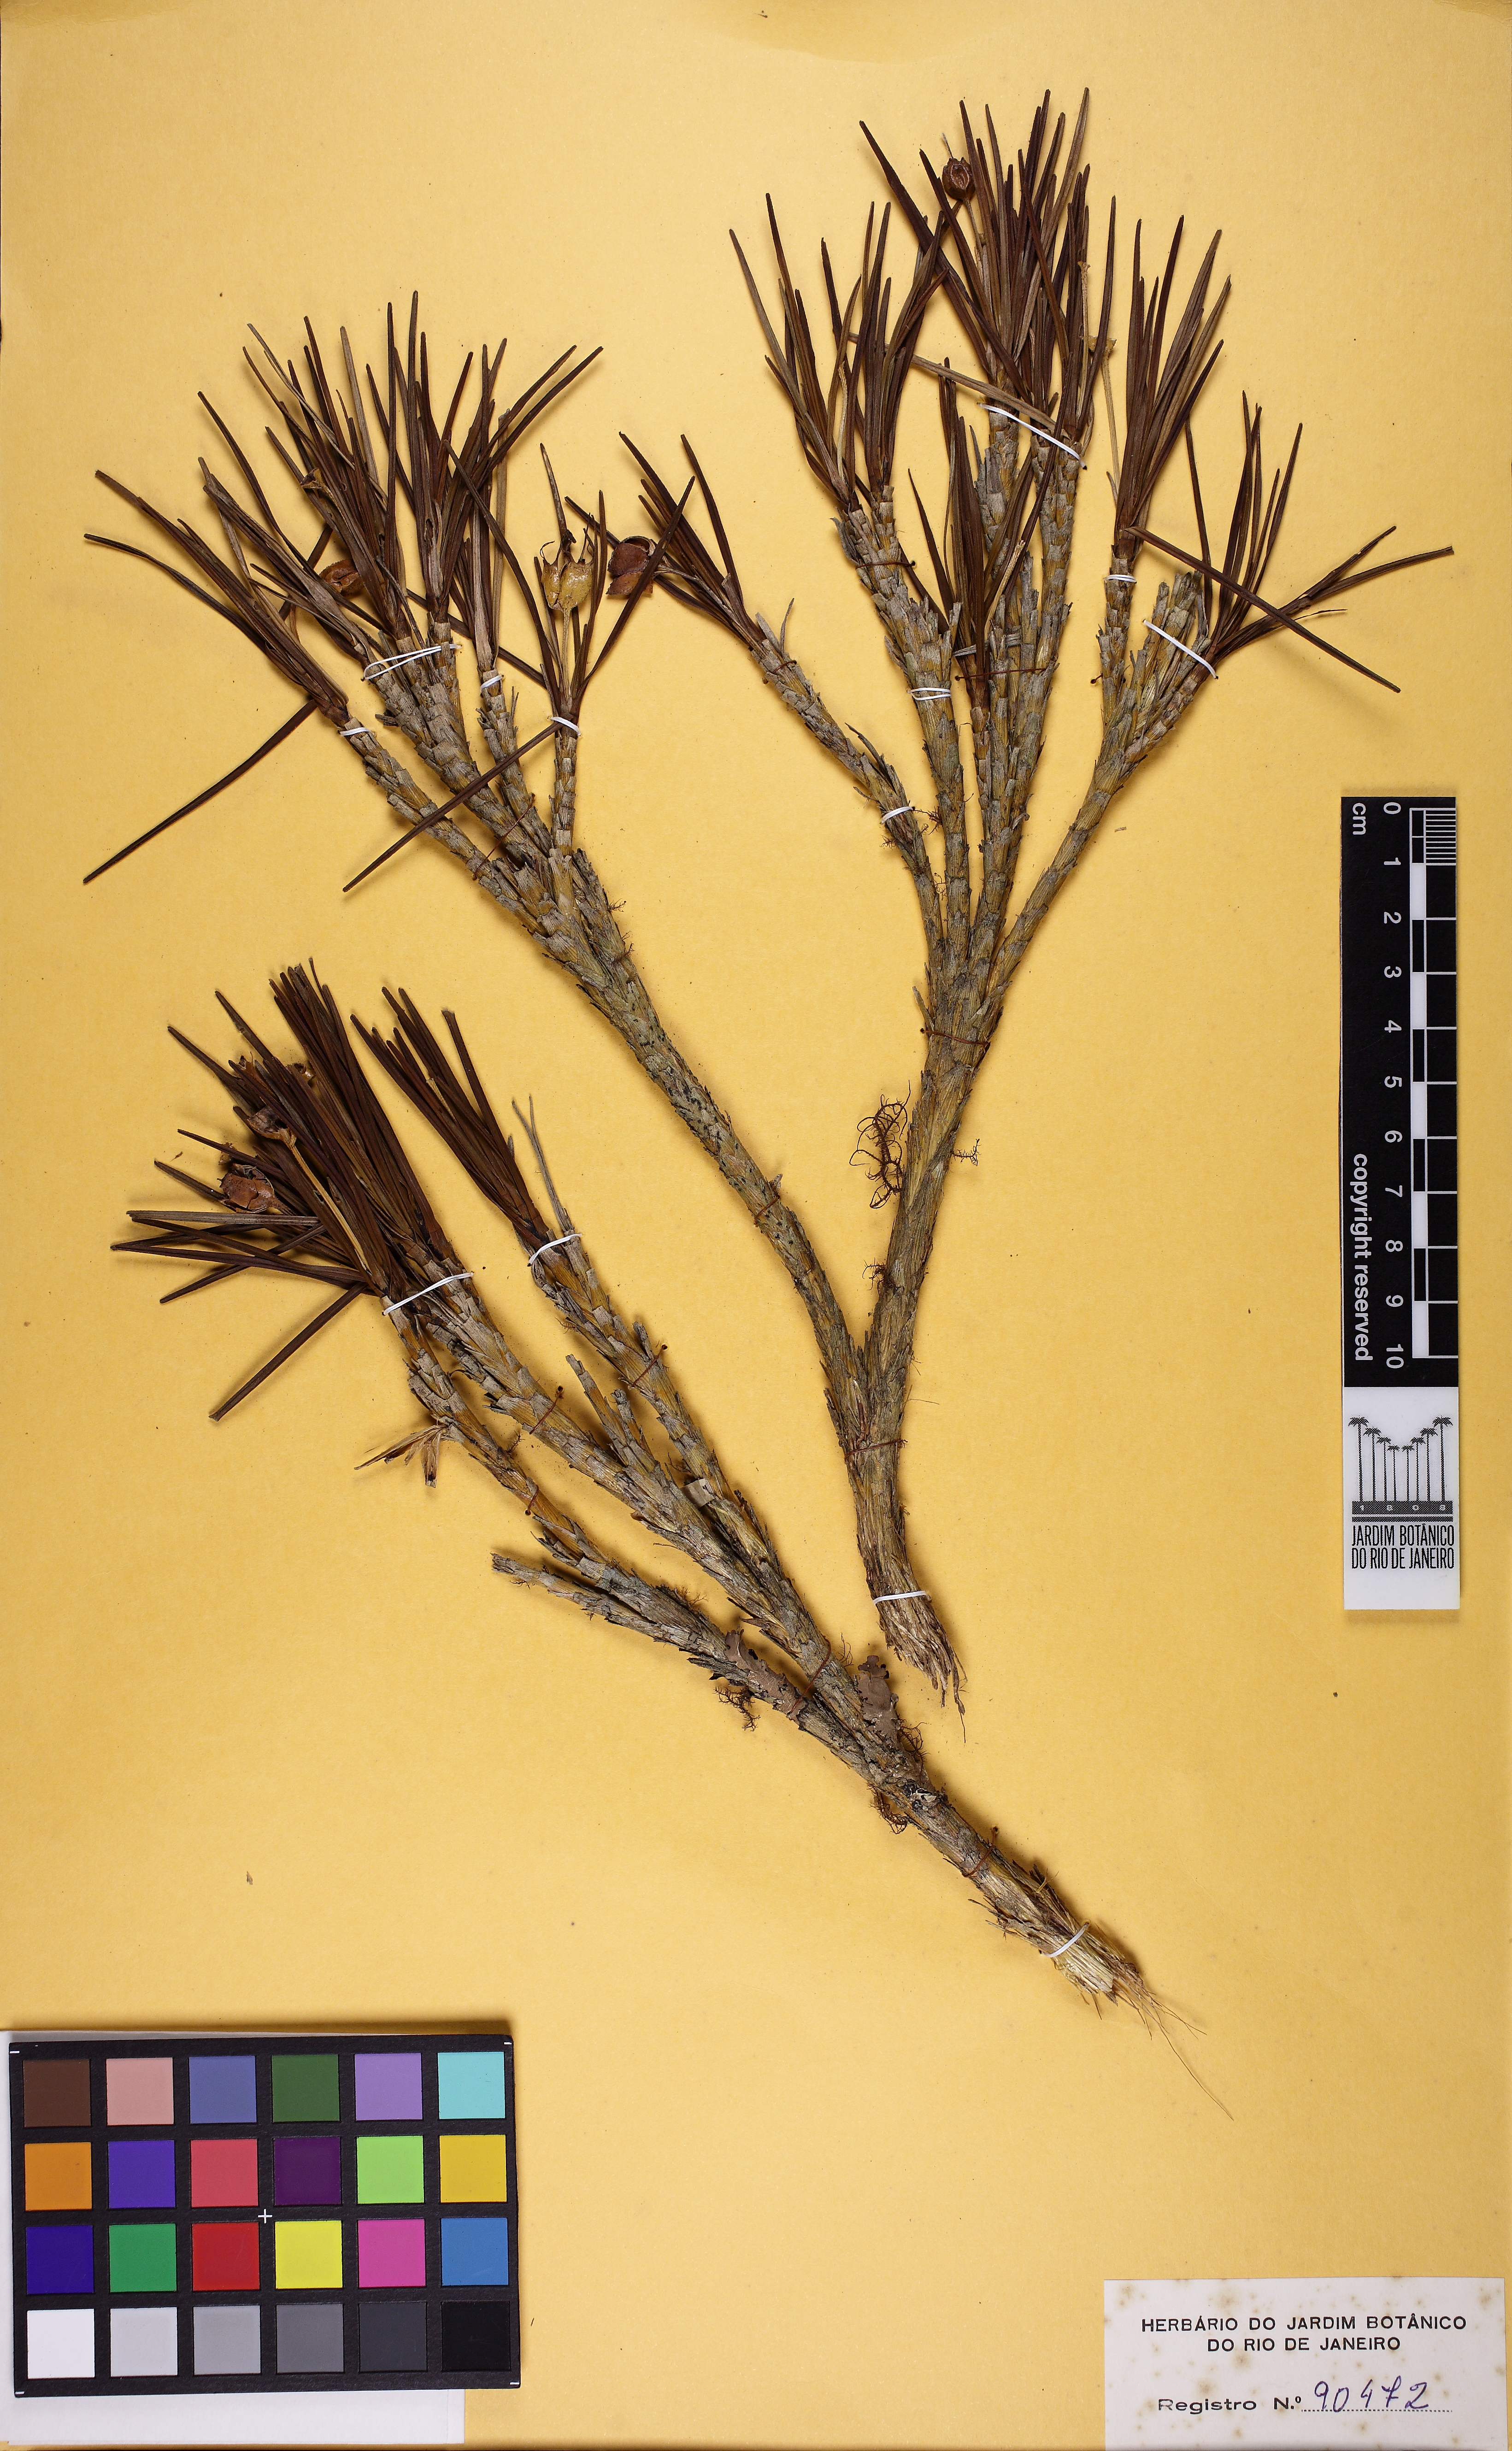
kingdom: Plantae
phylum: Tracheophyta
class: Liliopsida
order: Pandanales
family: Velloziaceae
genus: Vellozia
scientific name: Vellozia variegata
